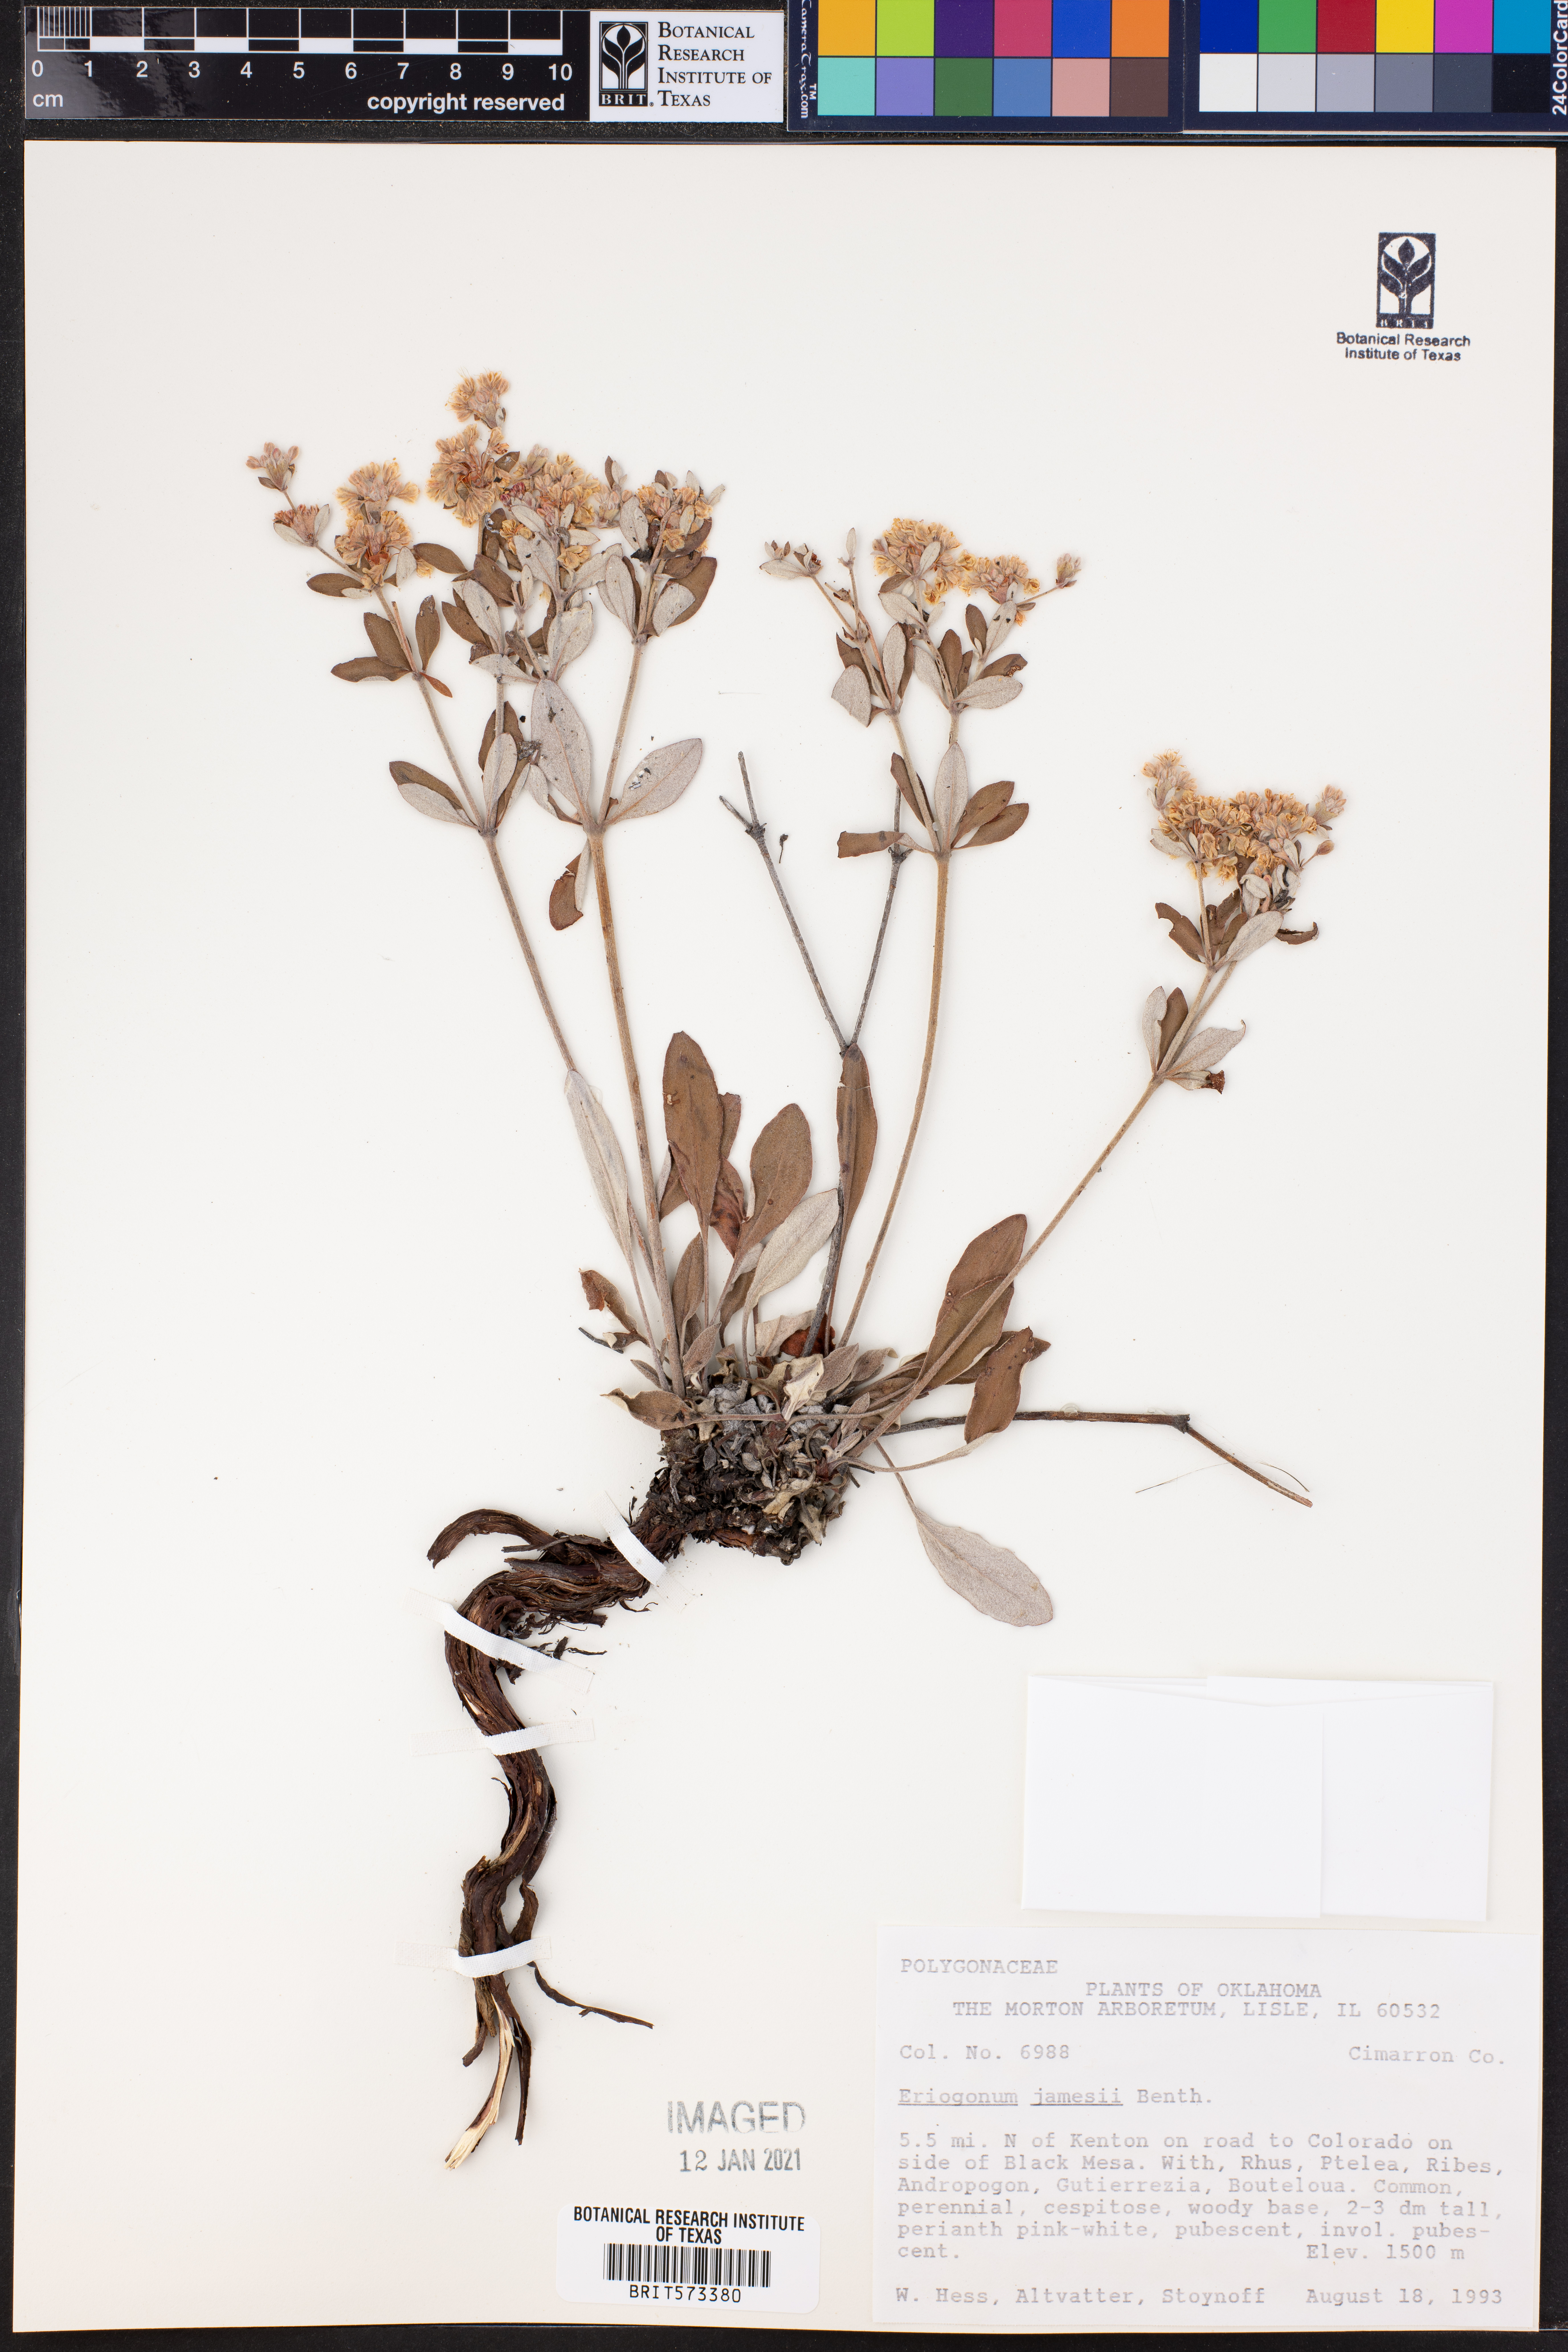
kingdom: Plantae
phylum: Tracheophyta
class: Magnoliopsida
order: Caryophyllales
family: Polygonaceae
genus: Eriogonum
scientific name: Eriogonum jamesii
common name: Antelope-sage
